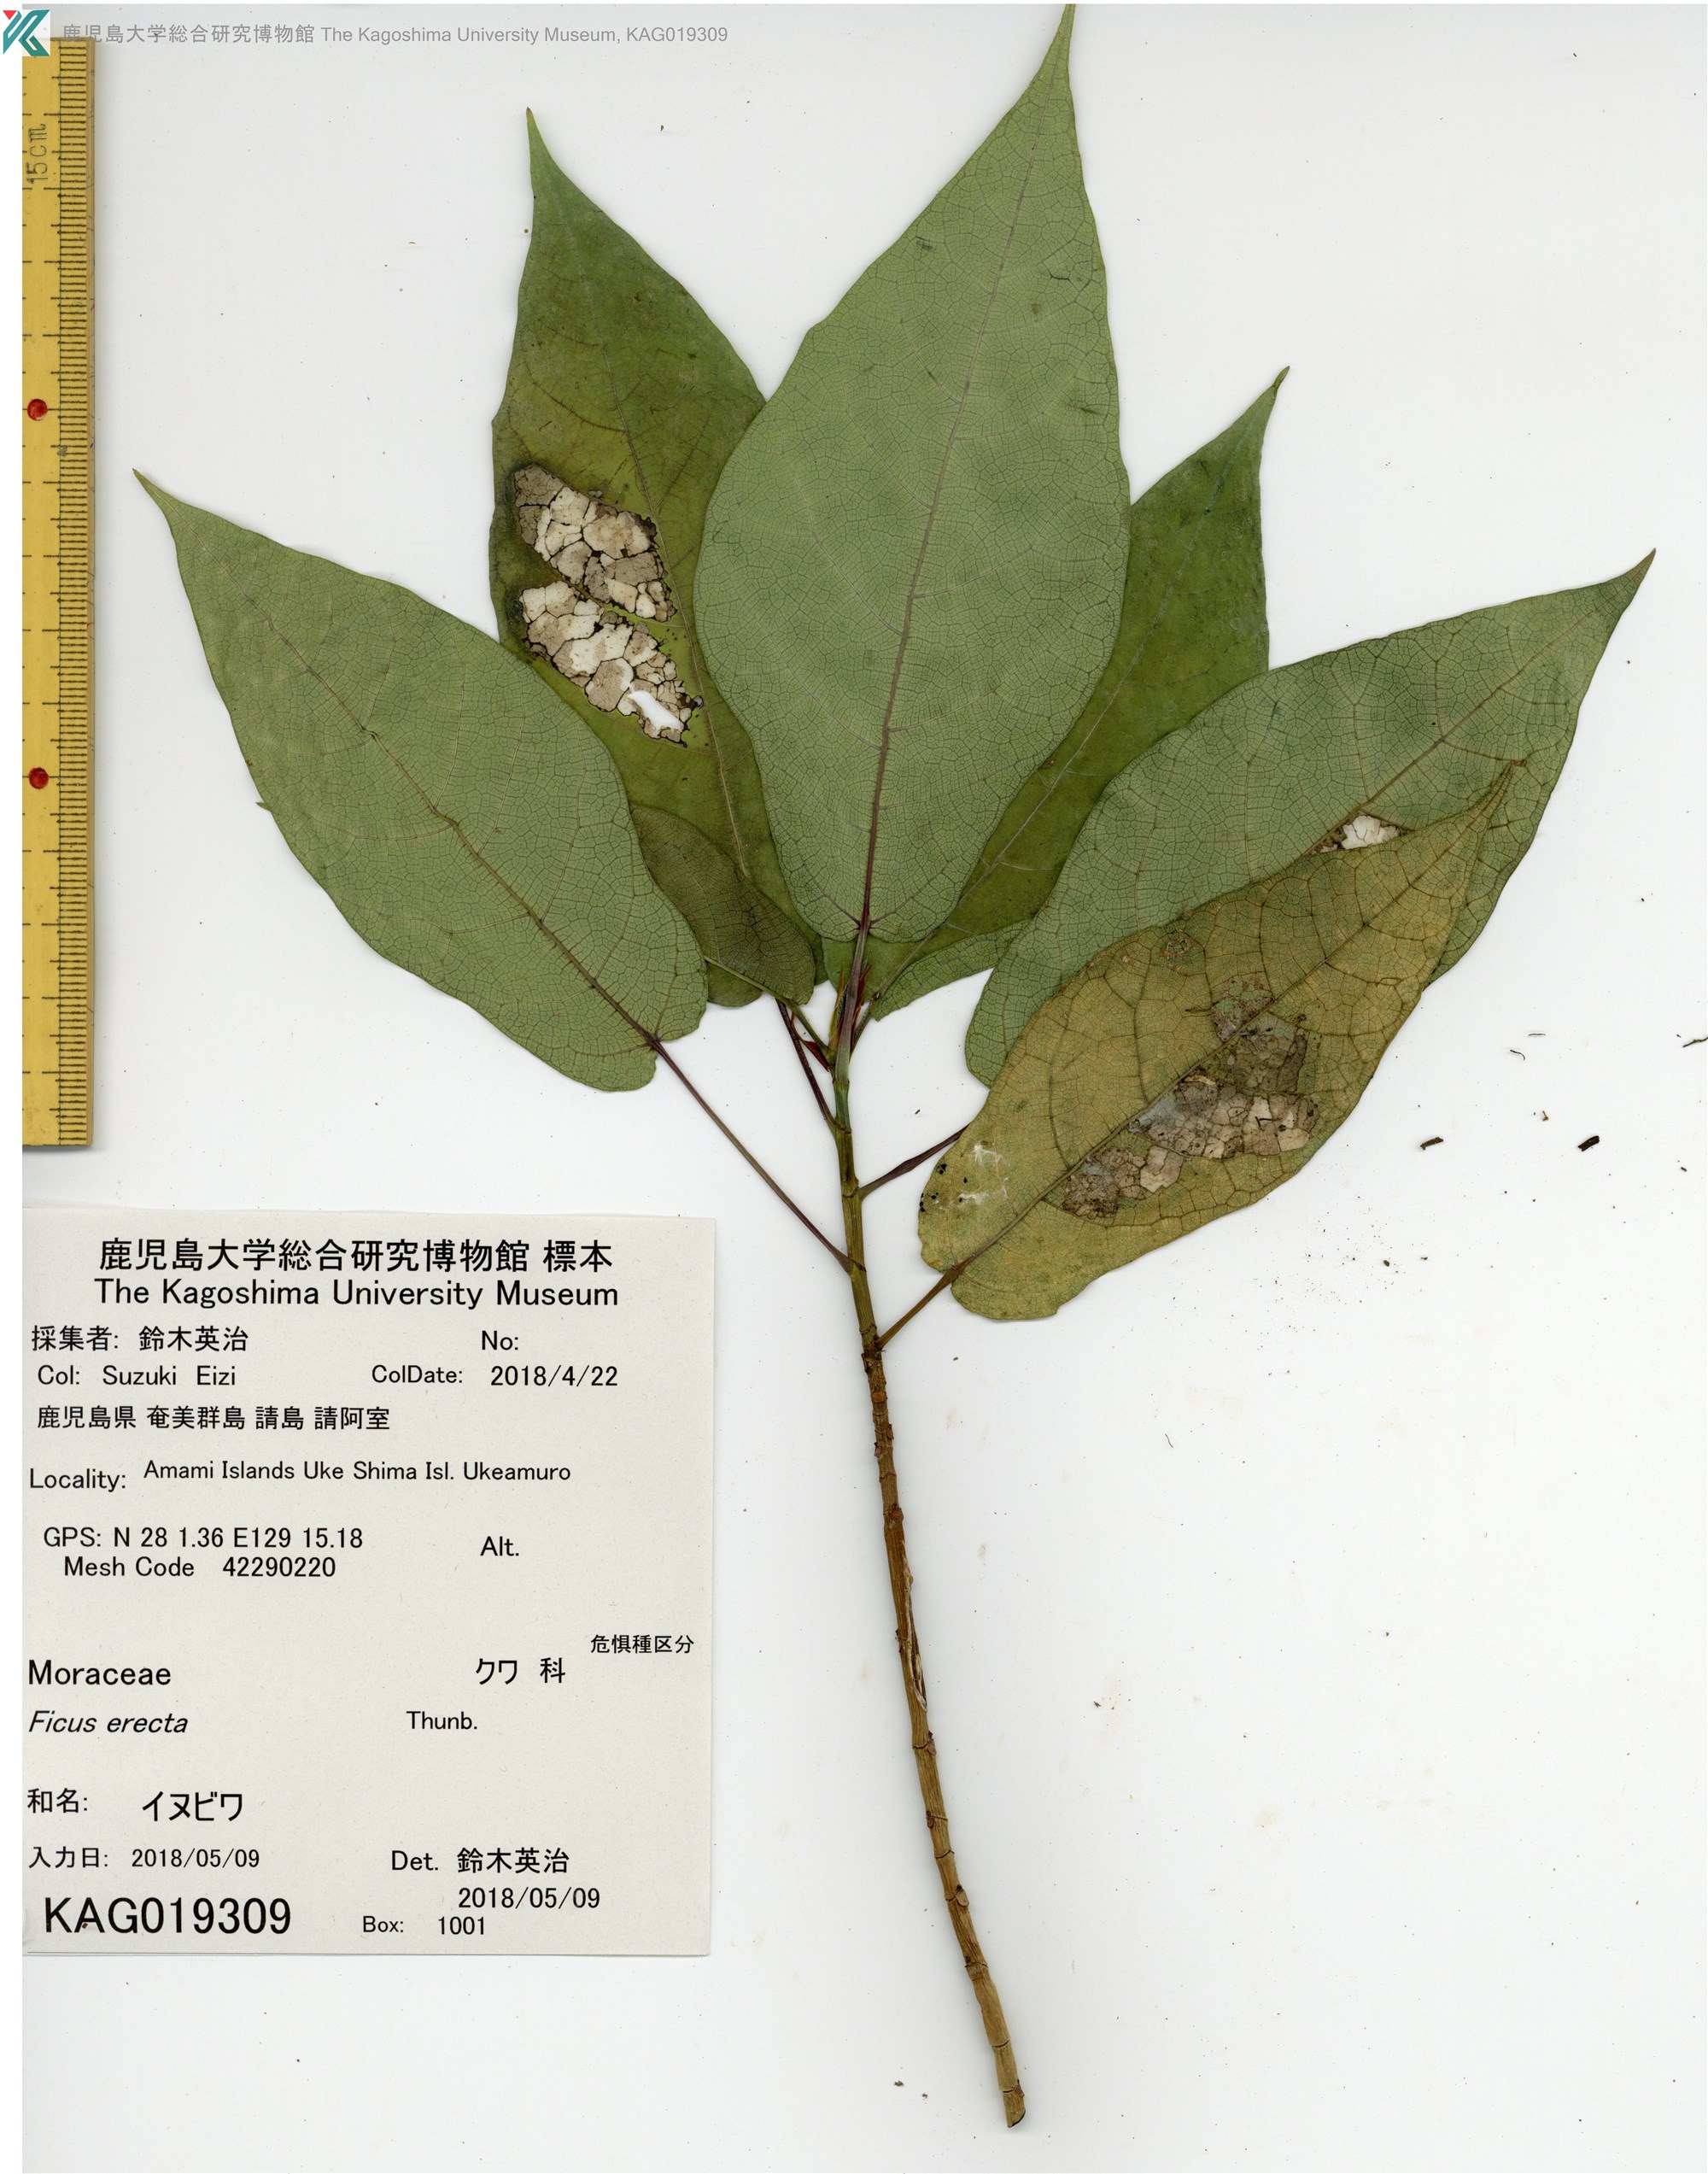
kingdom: Plantae
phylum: Tracheophyta
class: Magnoliopsida
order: Rosales
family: Moraceae
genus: Ficus
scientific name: Ficus erecta
